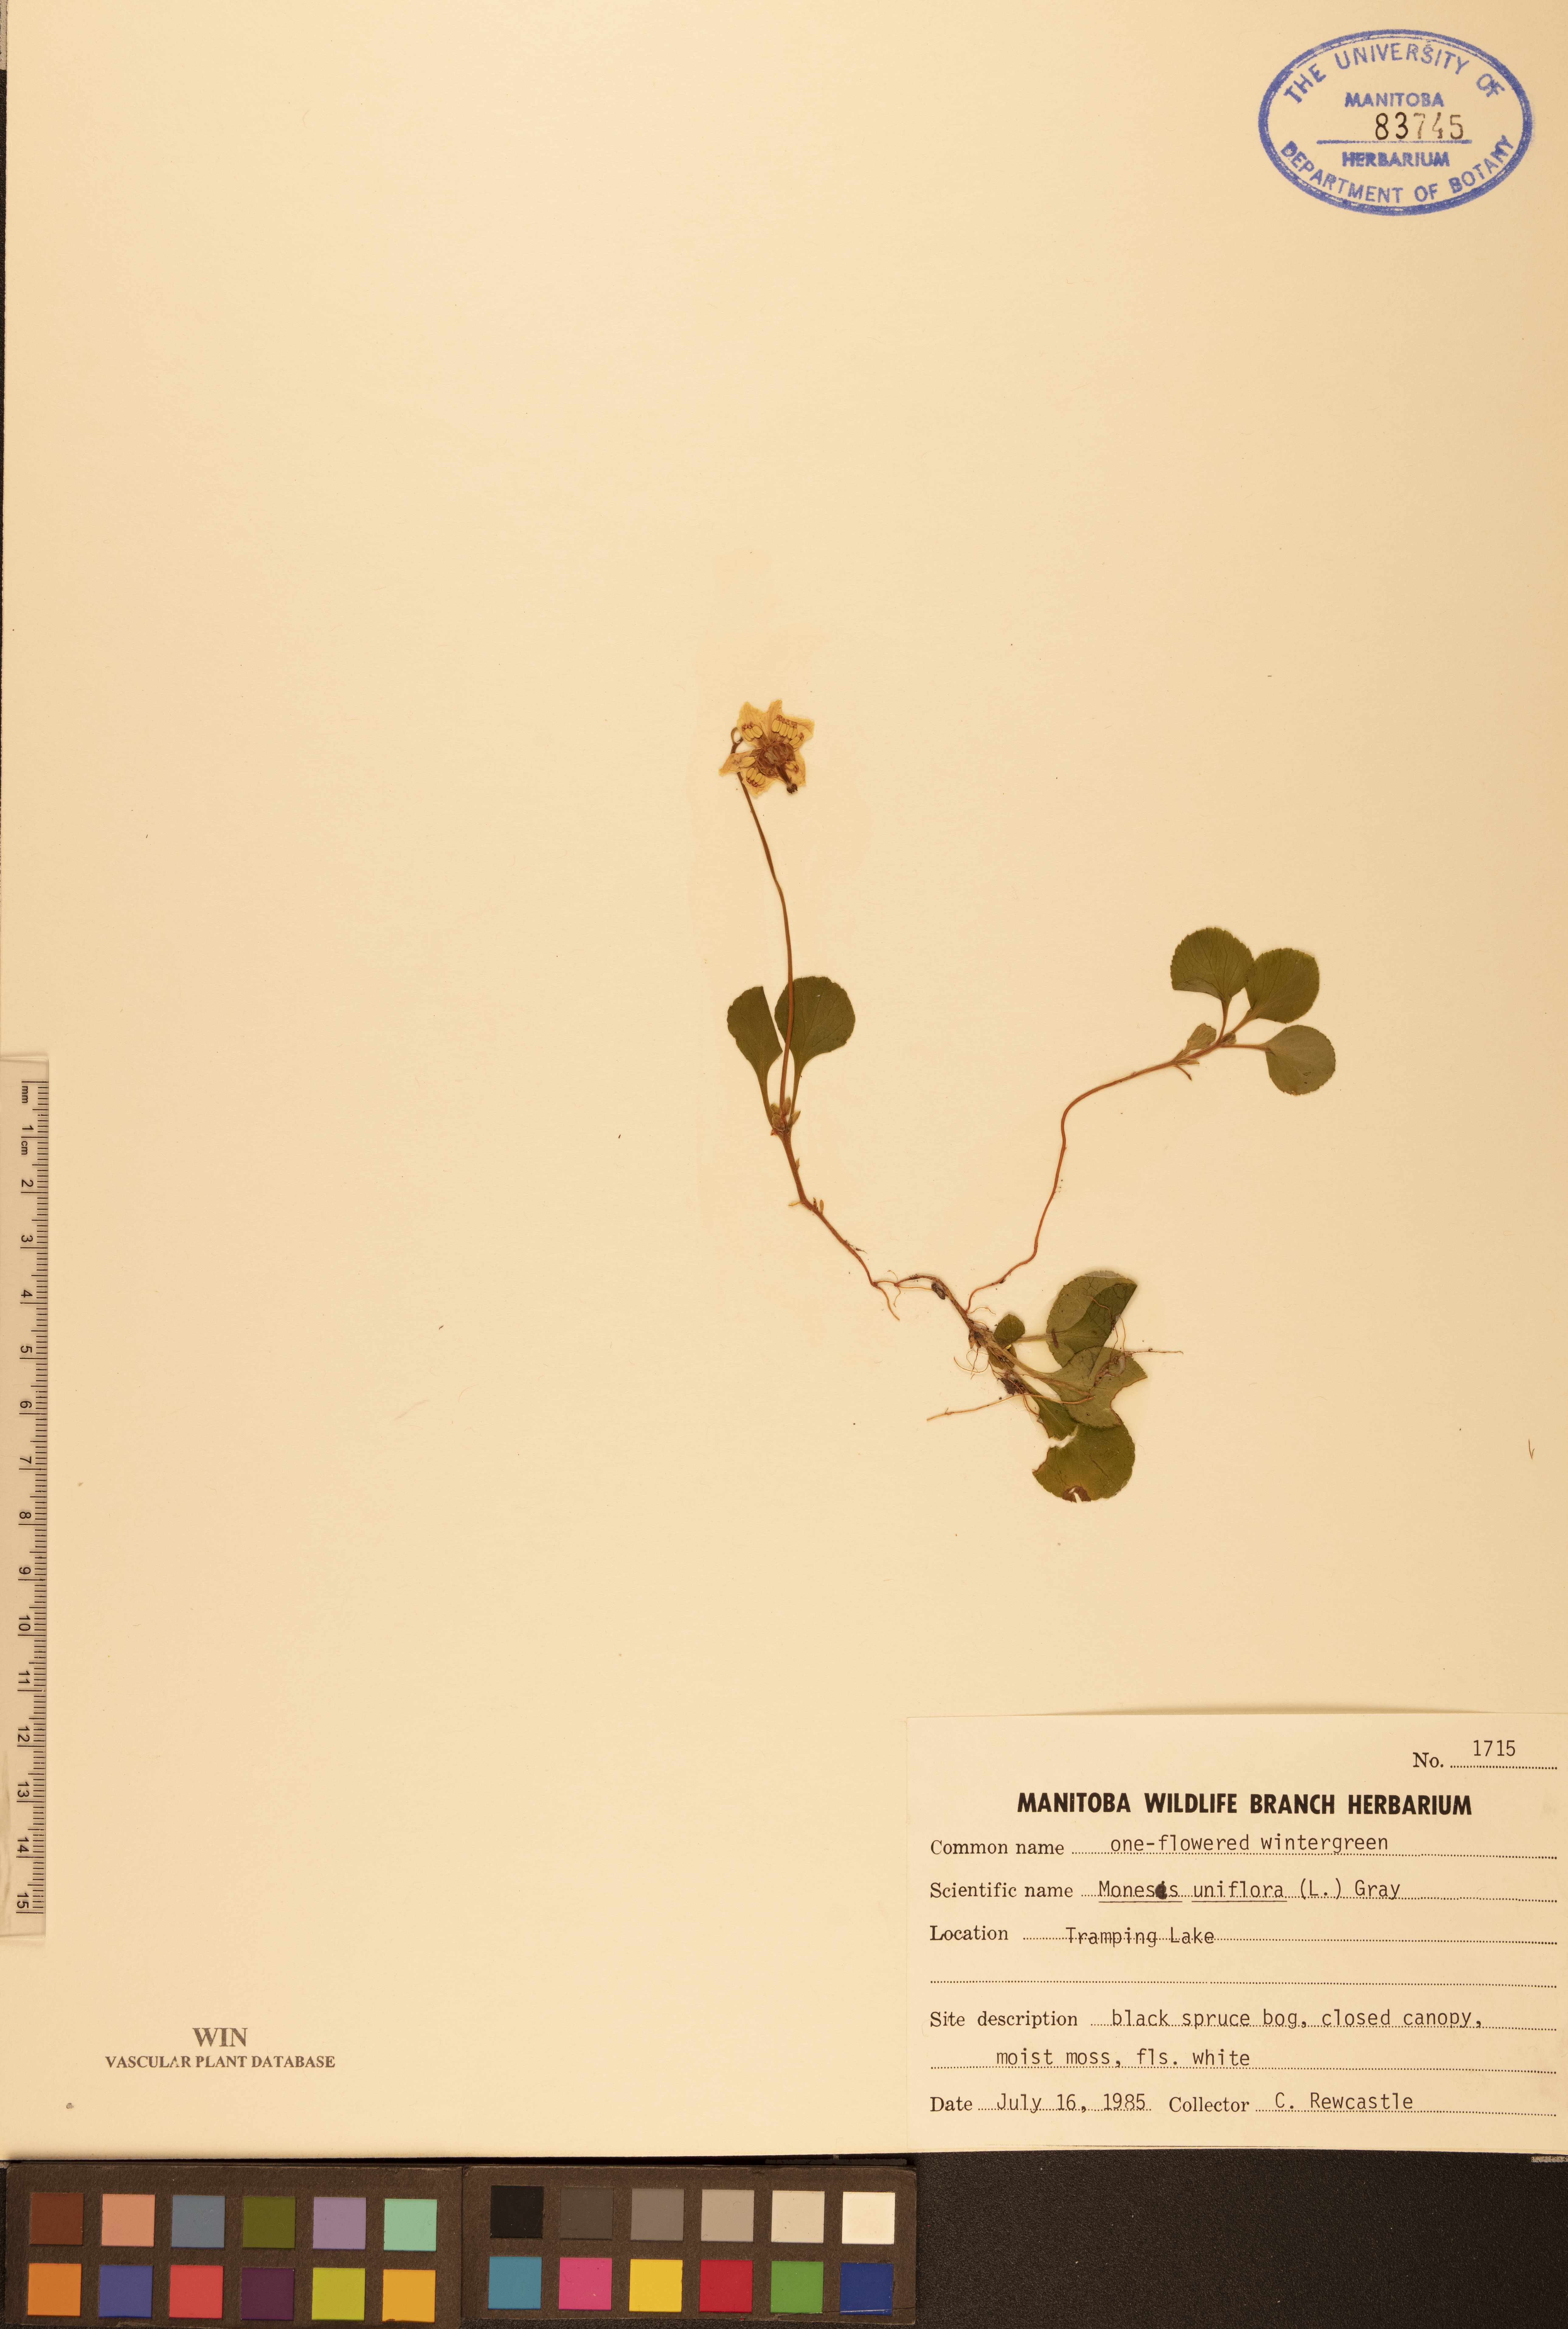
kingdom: Plantae
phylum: Tracheophyta
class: Magnoliopsida
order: Ericales
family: Ericaceae
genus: Moneses
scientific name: Moneses uniflora
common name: One-flowered wintergreen
